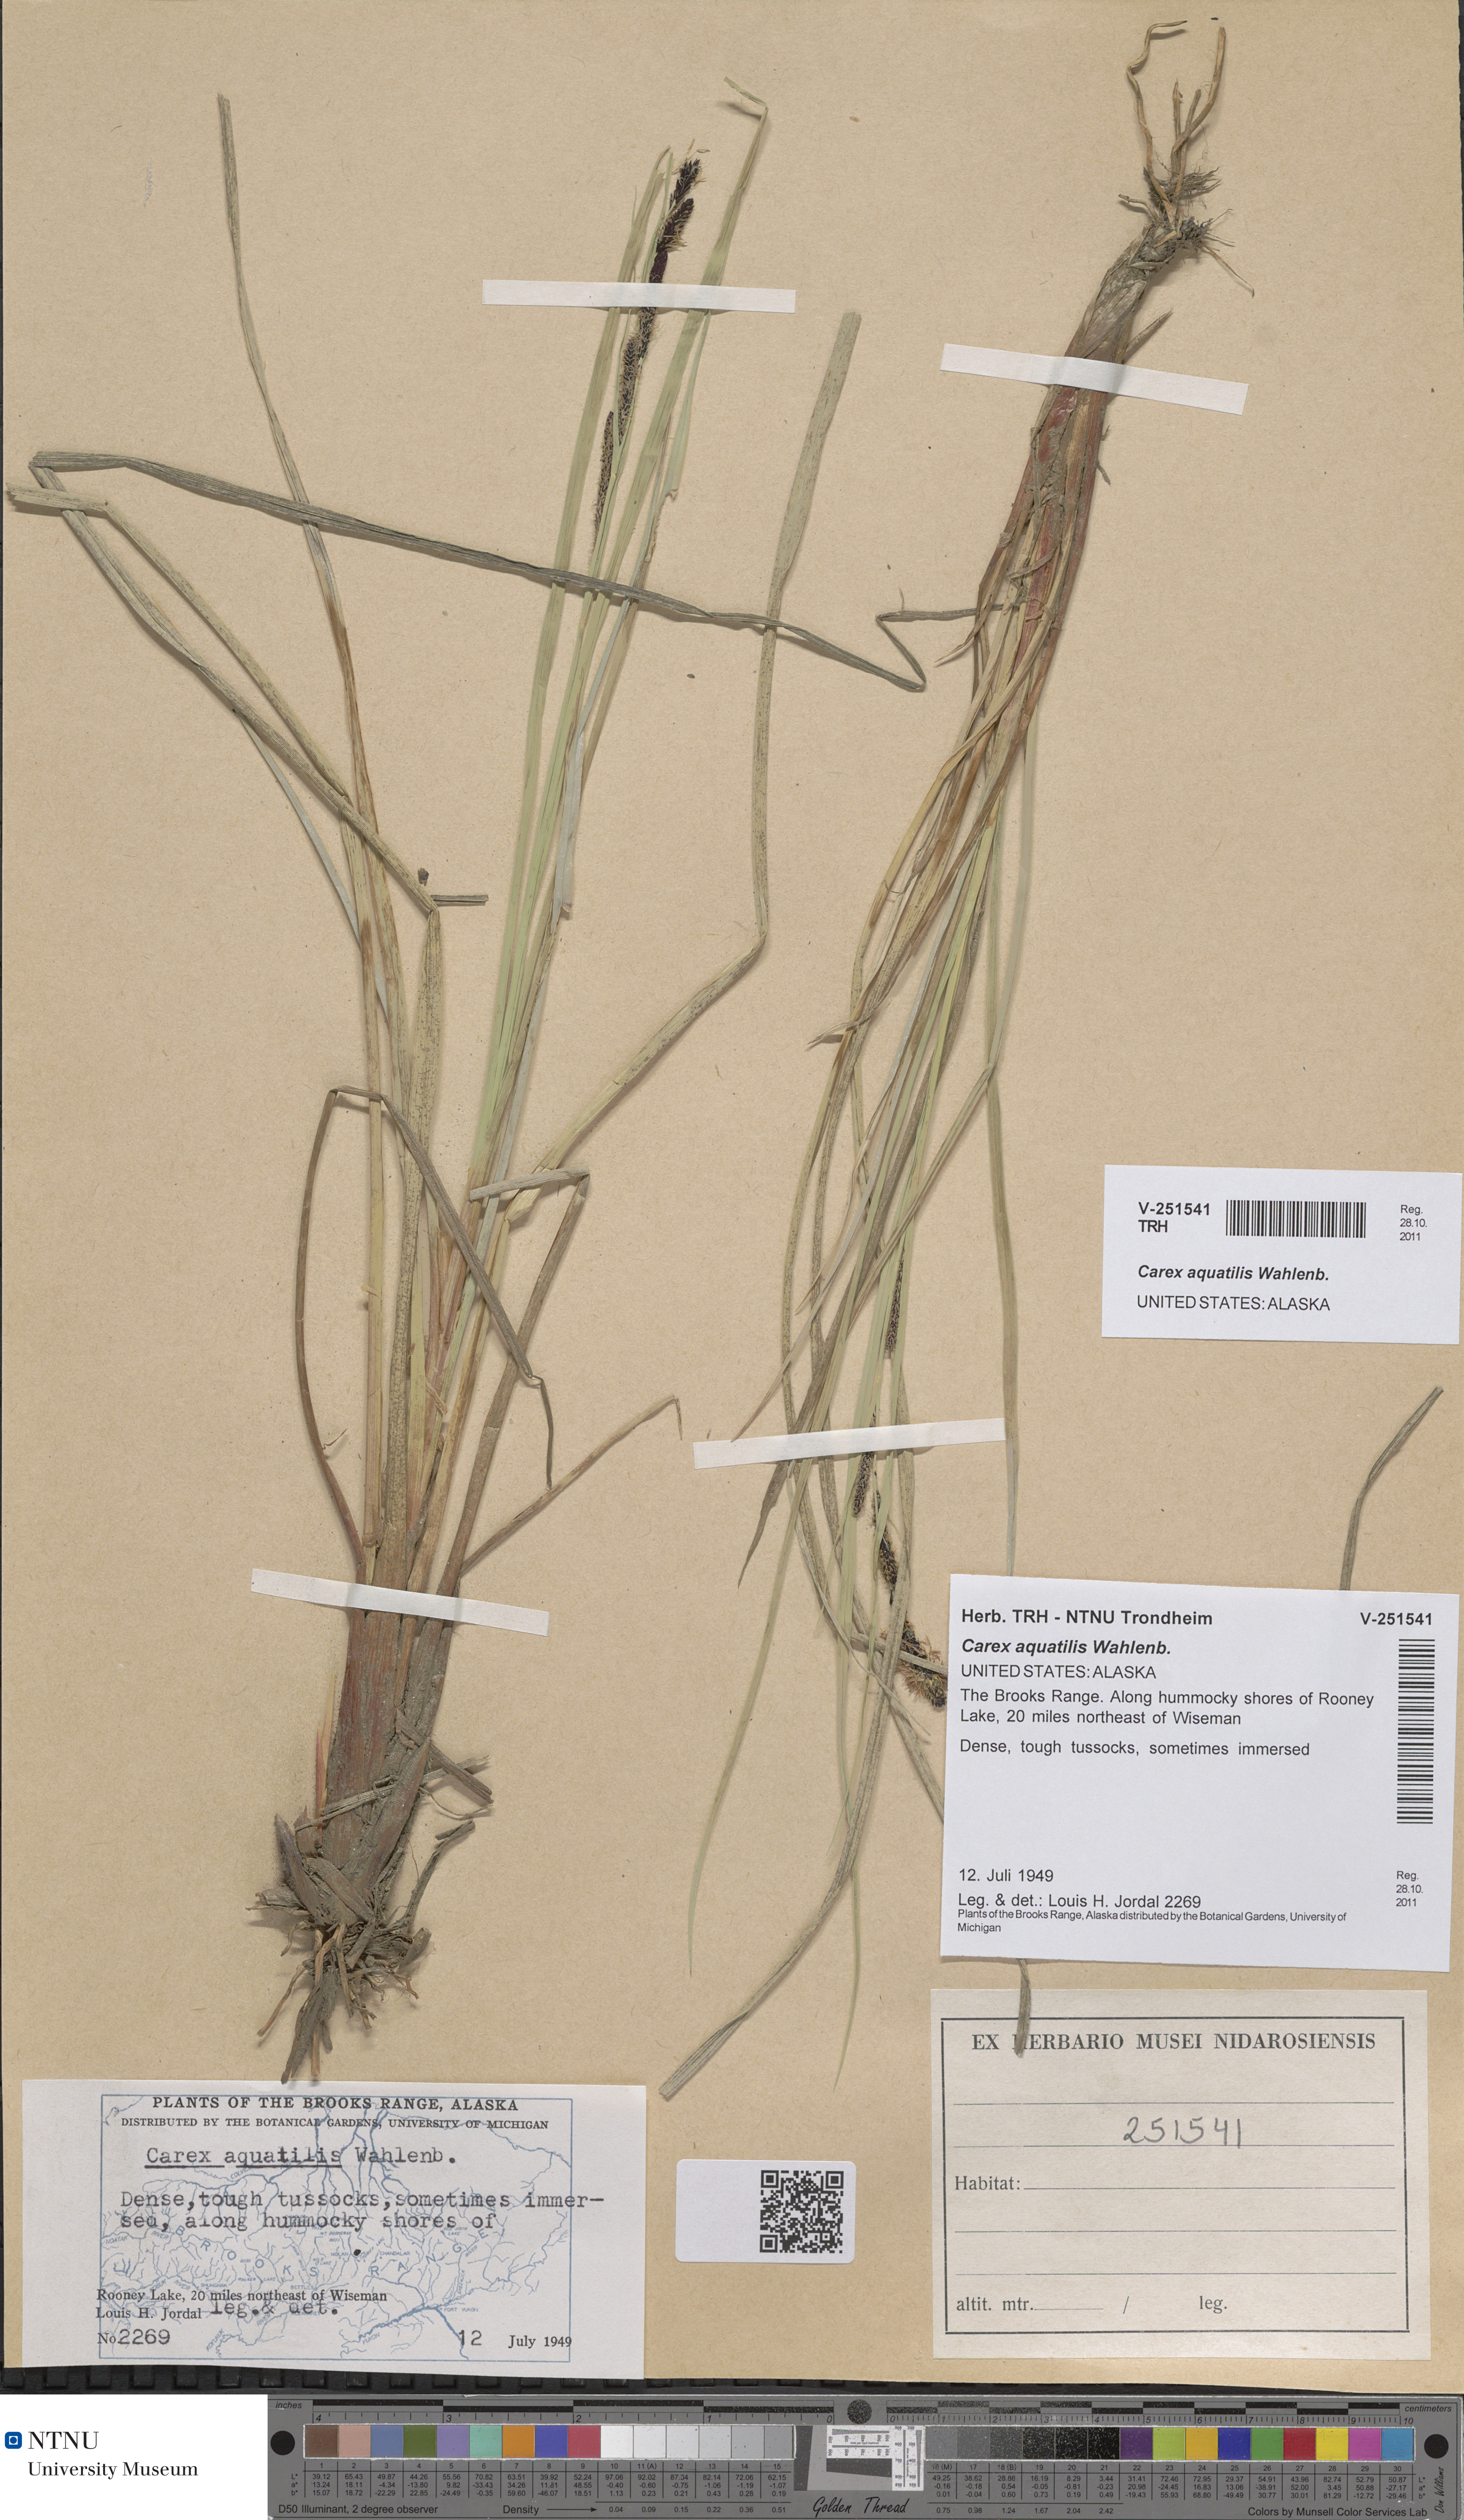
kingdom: Plantae
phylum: Tracheophyta
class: Liliopsida
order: Poales
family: Cyperaceae
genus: Carex
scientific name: Carex aquatilis
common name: Water sedge
